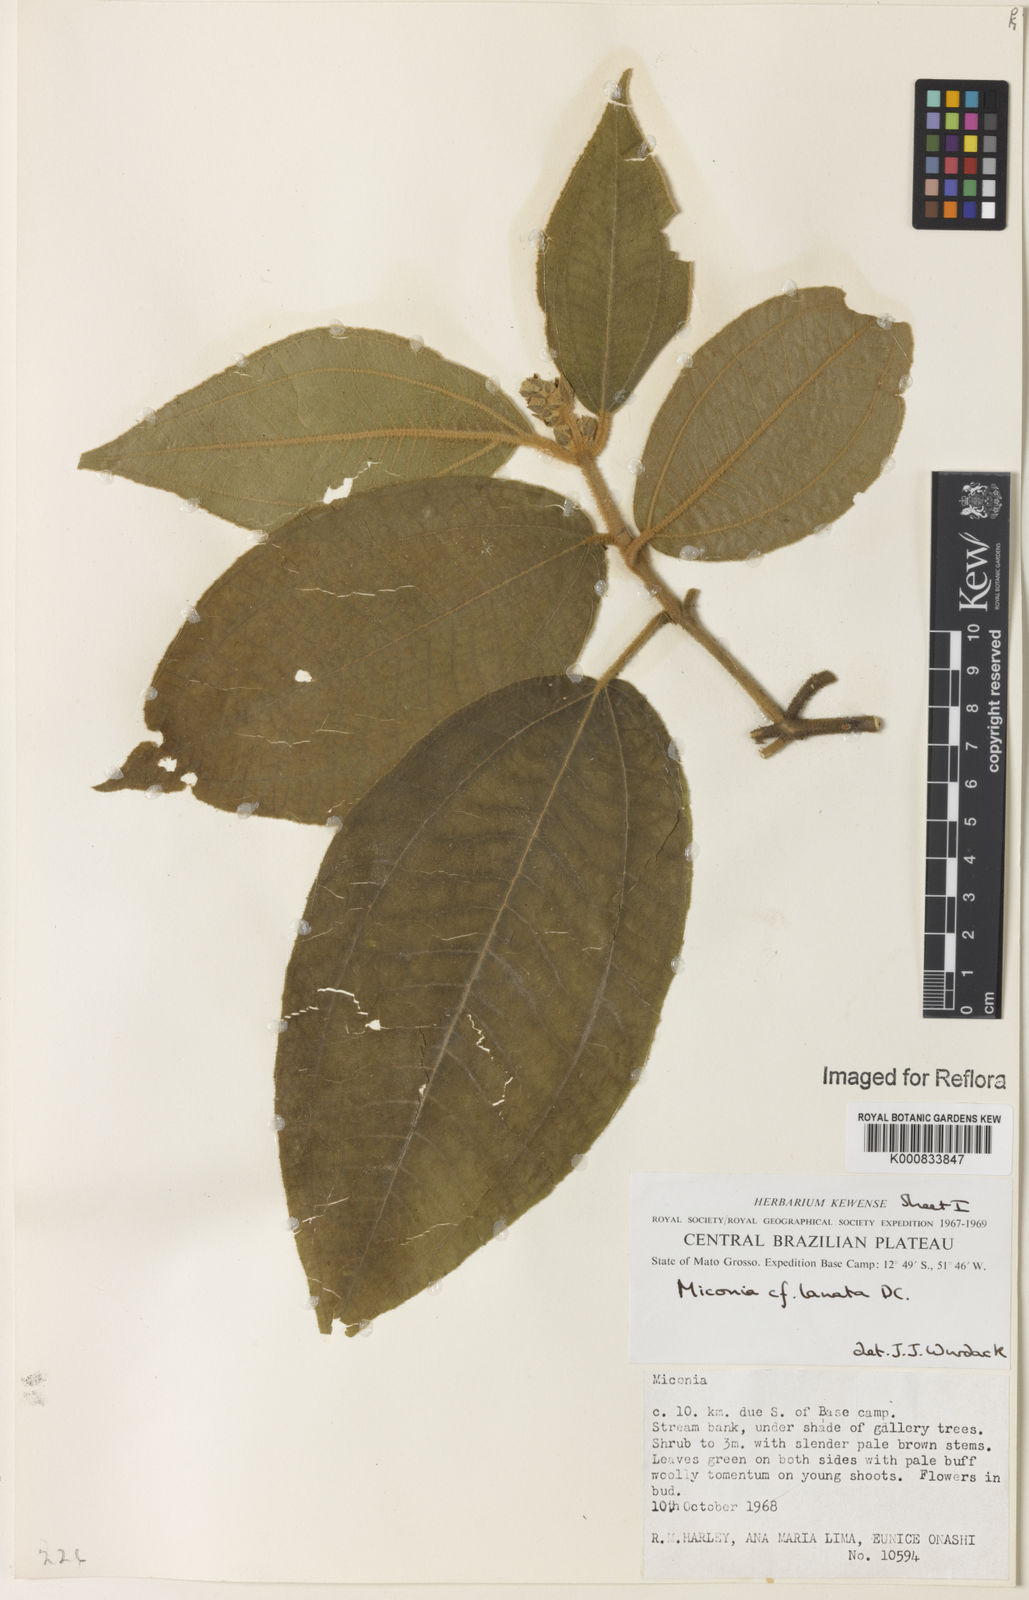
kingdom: Plantae
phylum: Tracheophyta
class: Magnoliopsida
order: Myrtales
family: Melastomataceae
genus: Miconia
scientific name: Miconia lanata
